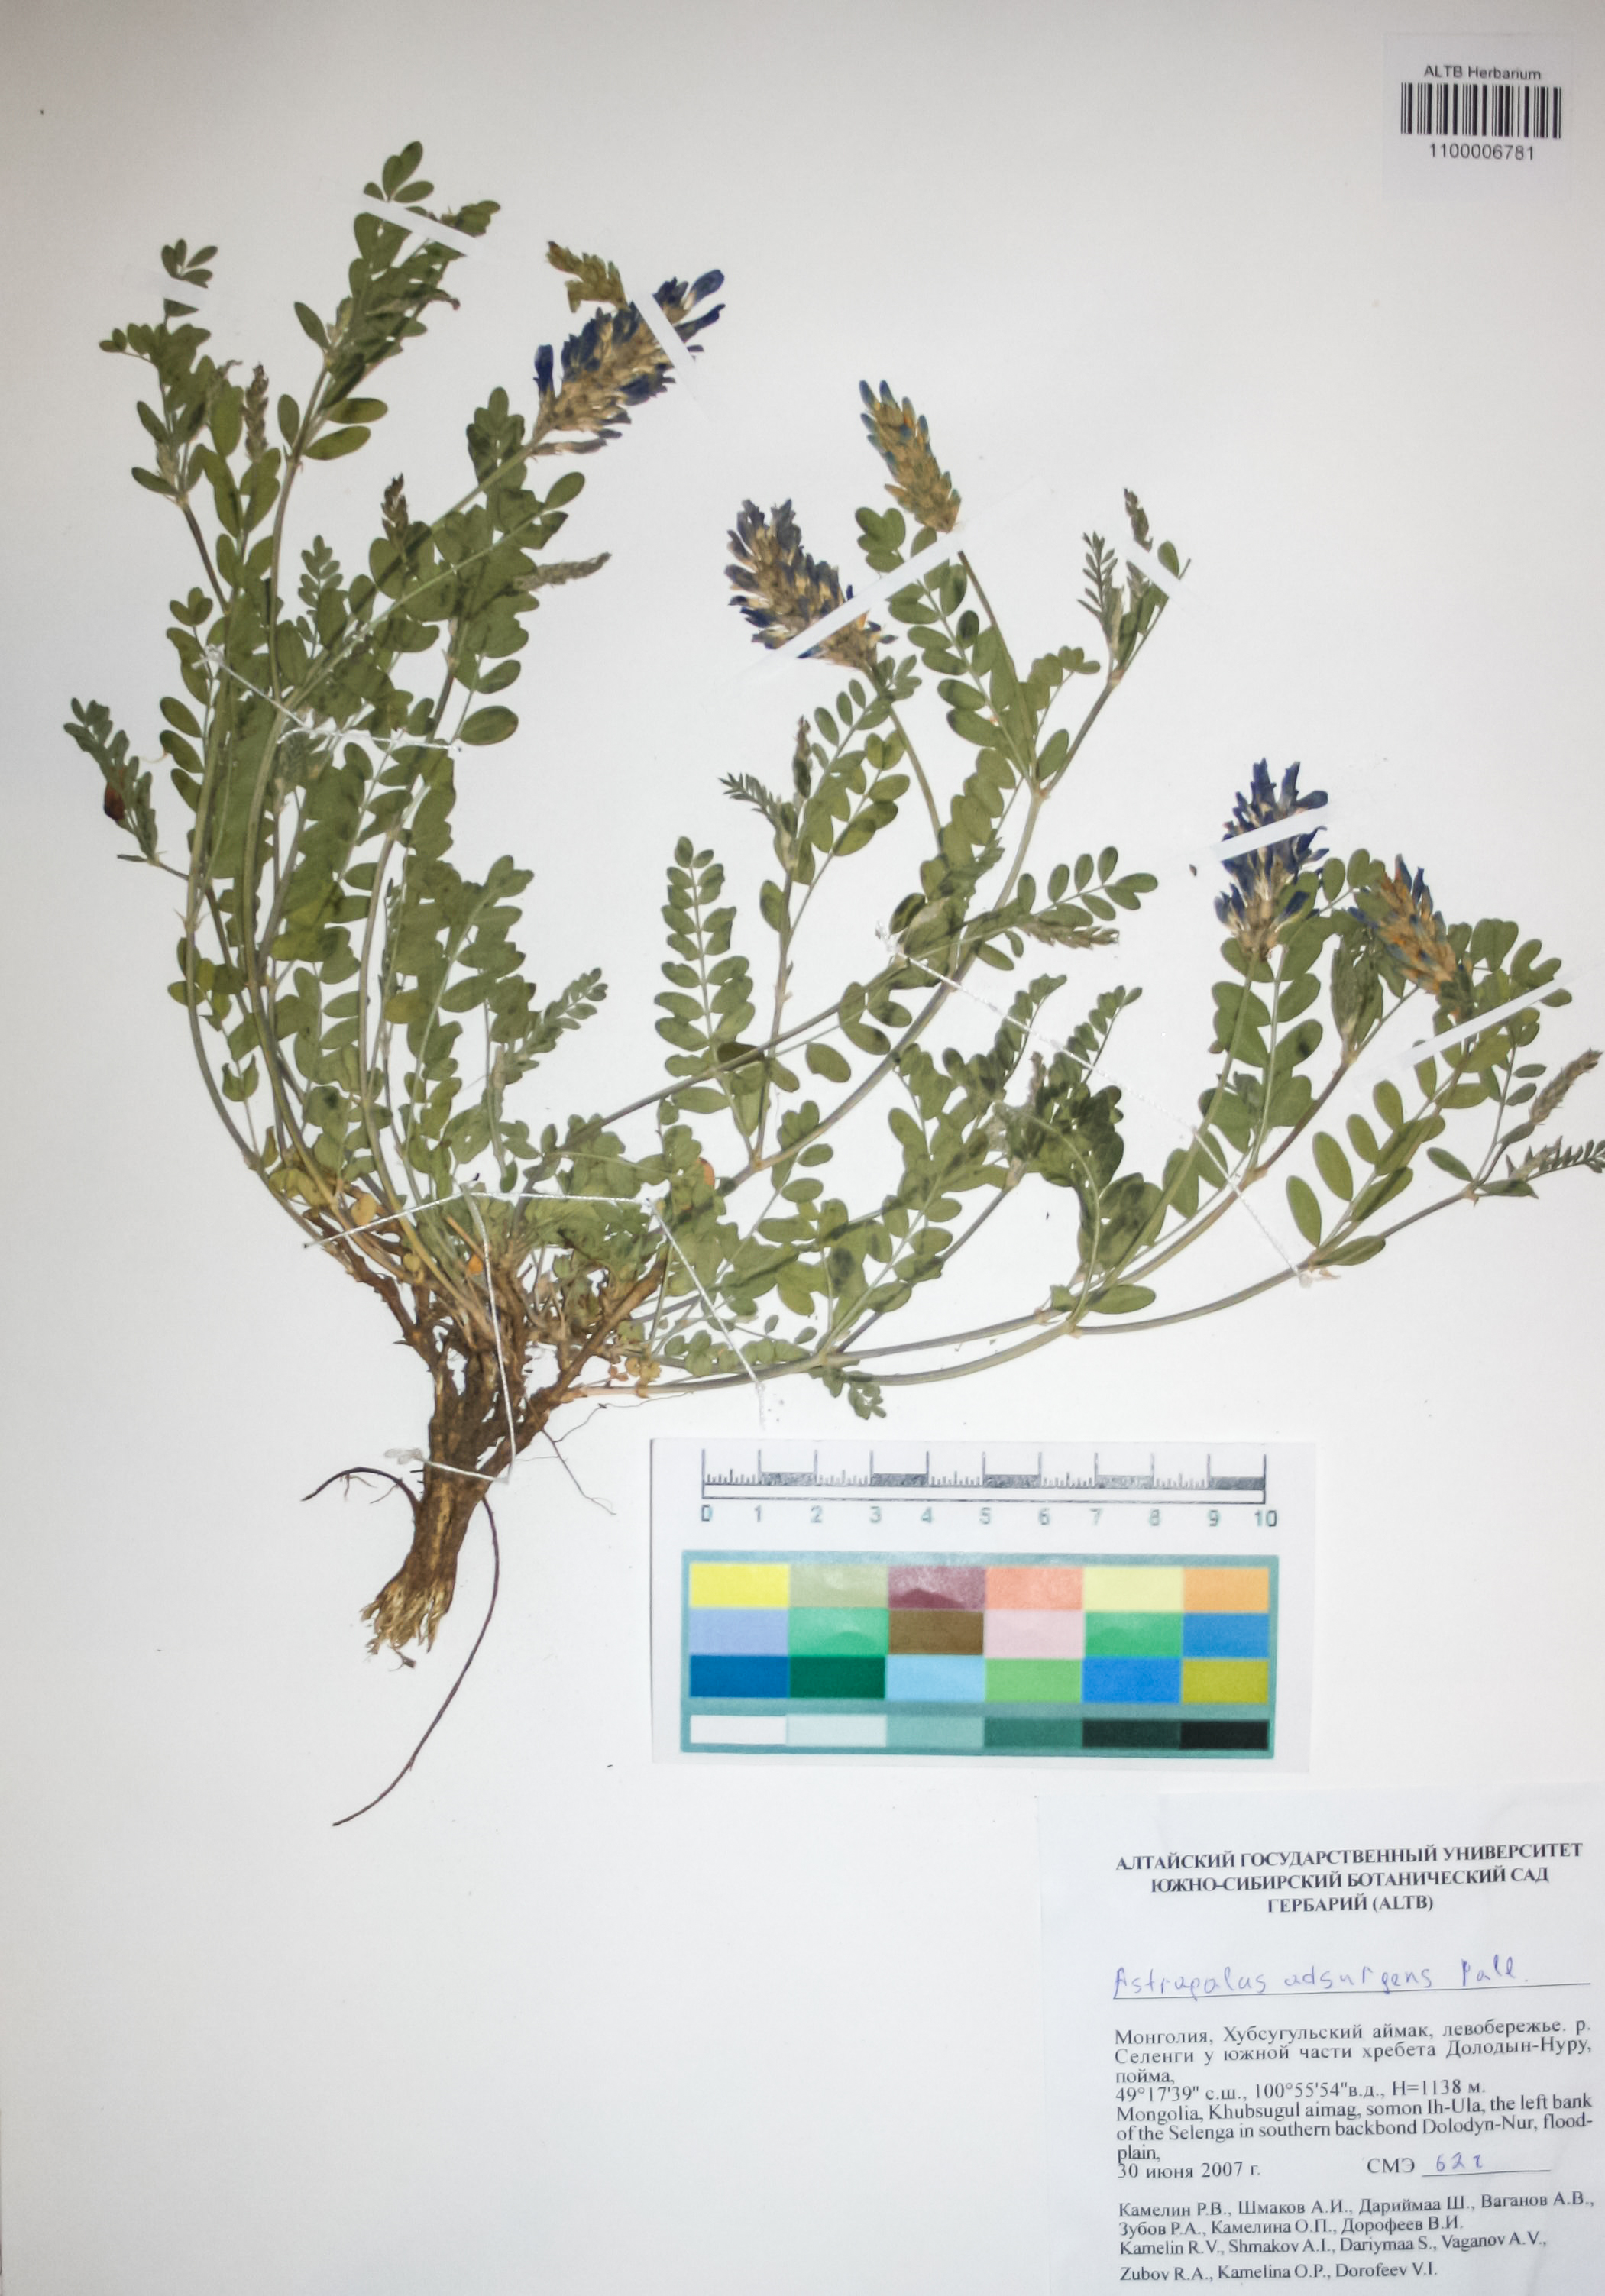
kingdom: Plantae
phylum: Tracheophyta
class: Magnoliopsida
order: Fabales
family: Fabaceae
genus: Astragalus
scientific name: Astragalus laxmannii
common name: Laxmann's milk-vetch
